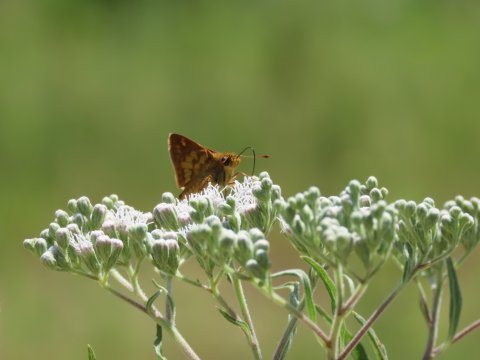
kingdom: Animalia
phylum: Arthropoda
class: Insecta
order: Lepidoptera
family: Hesperiidae
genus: Polites
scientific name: Polites coras
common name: Peck's Skipper
